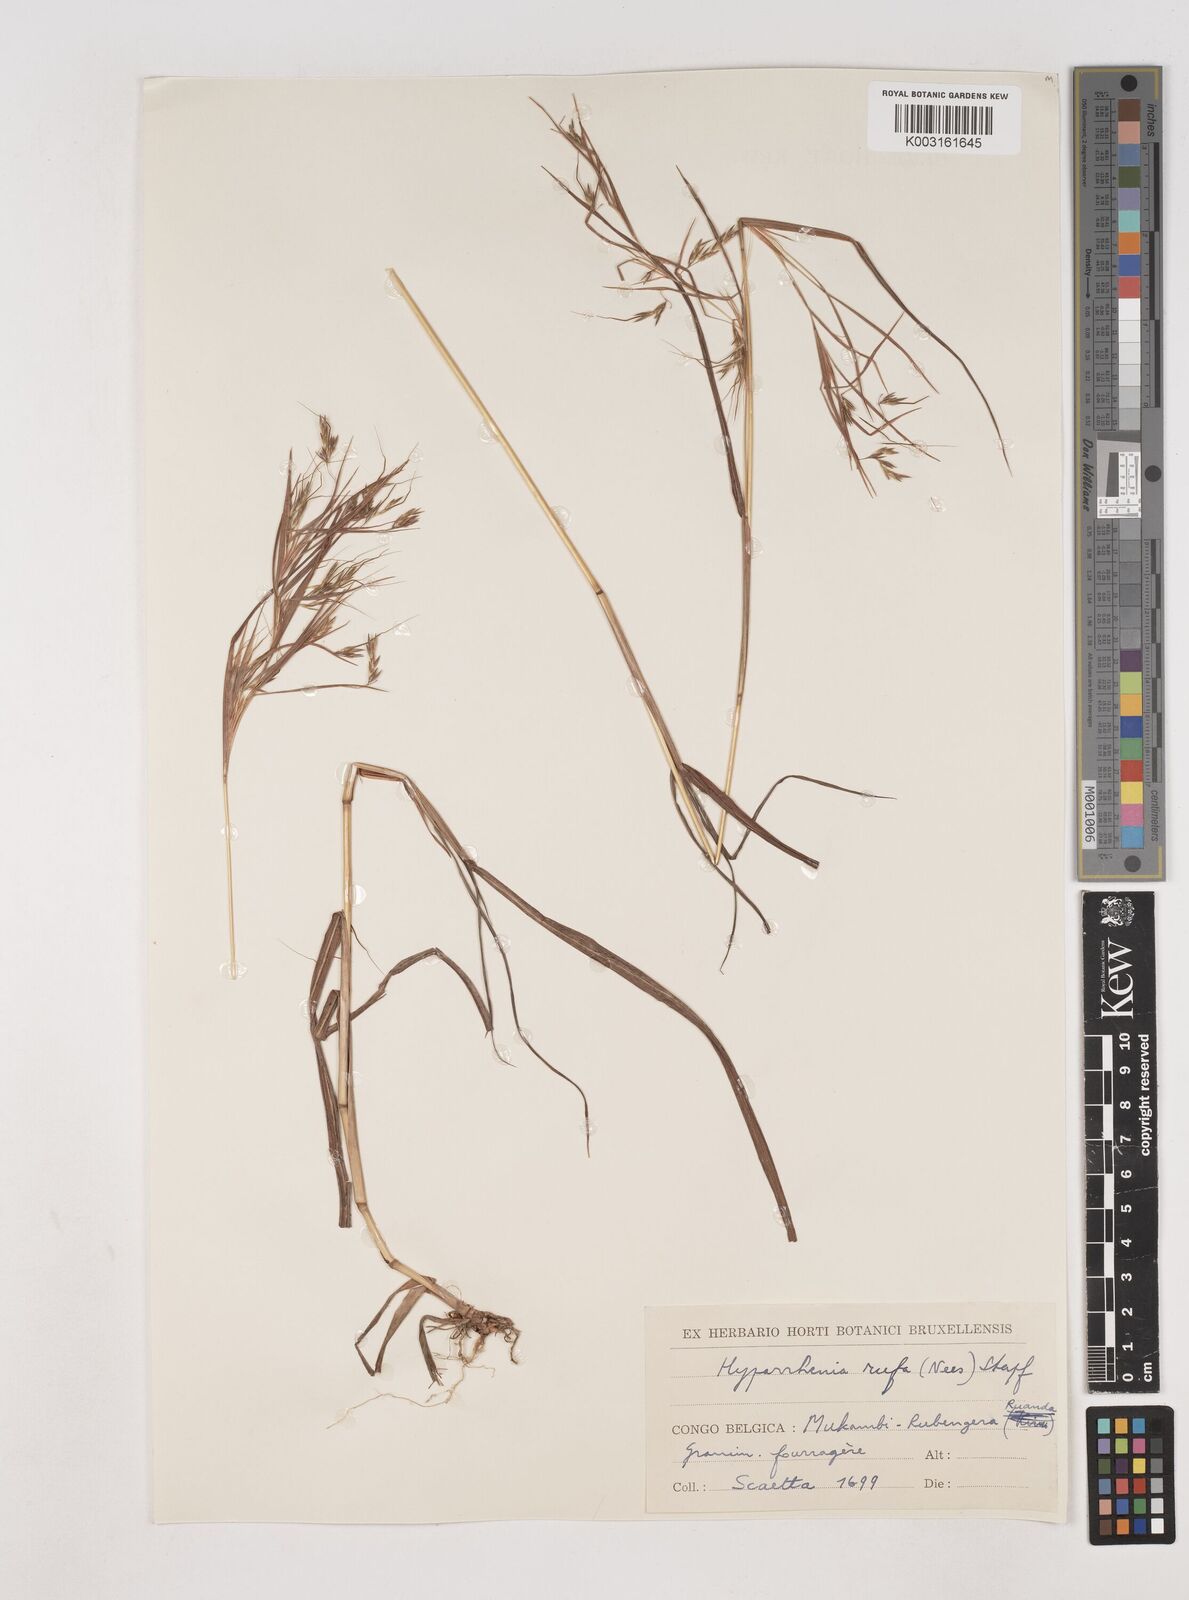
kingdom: Plantae
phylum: Tracheophyta
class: Liliopsida
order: Poales
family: Poaceae
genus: Hyparrhenia
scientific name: Hyparrhenia rufa
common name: Jaraguagrass
